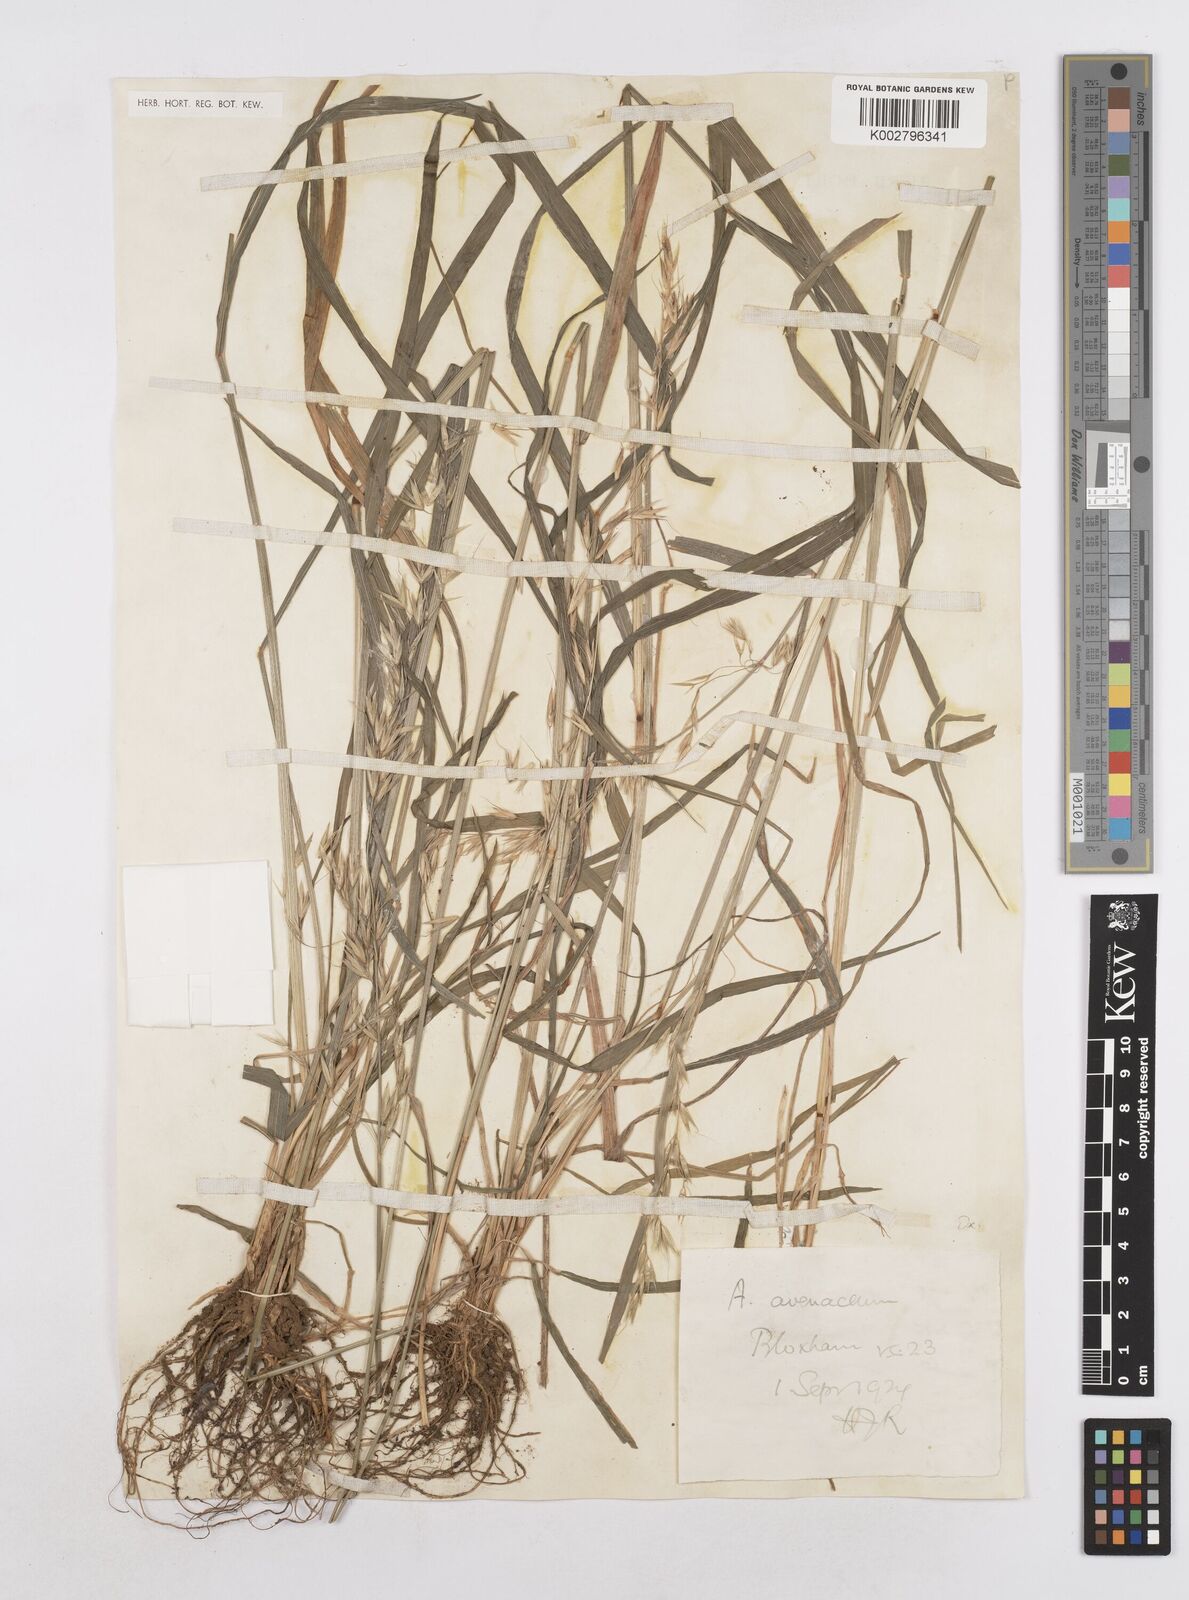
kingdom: Plantae
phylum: Tracheophyta
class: Liliopsida
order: Poales
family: Poaceae
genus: Arrhenatherum
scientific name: Arrhenatherum elatius
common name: Tall oatgrass
